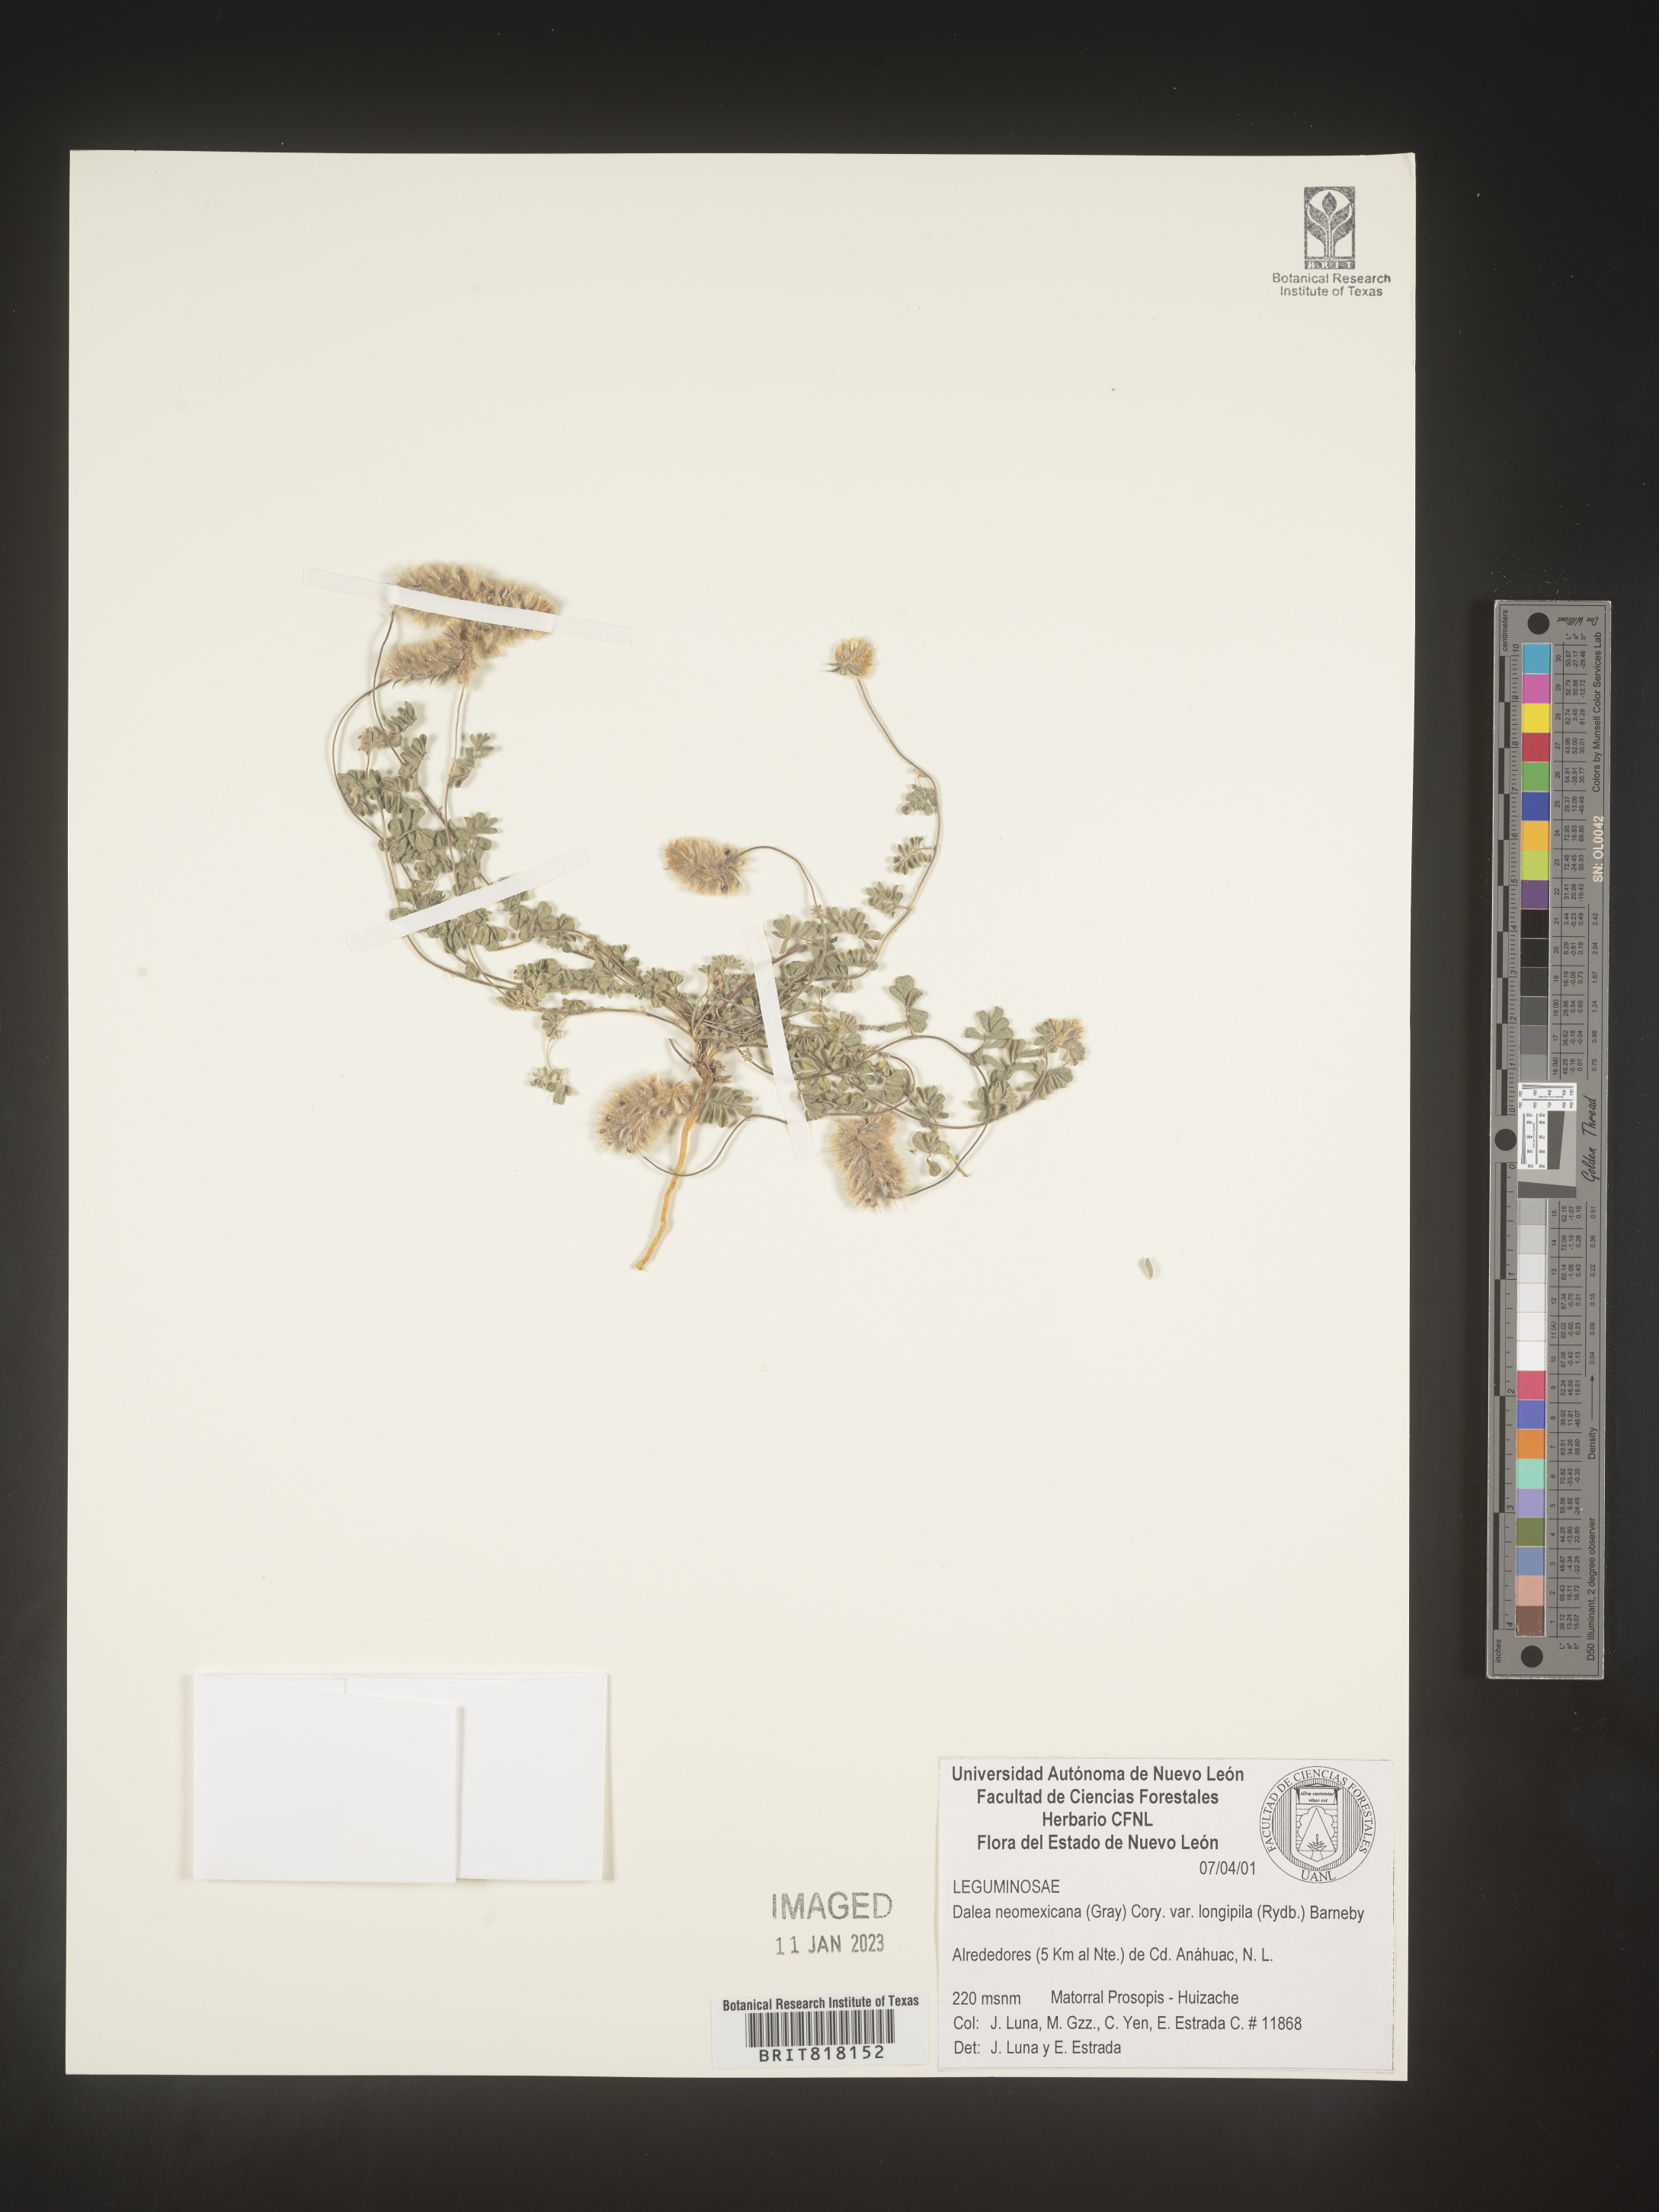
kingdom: Plantae
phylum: Tracheophyta
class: Magnoliopsida
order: Fabales
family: Fabaceae
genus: Dalea
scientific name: Dalea
